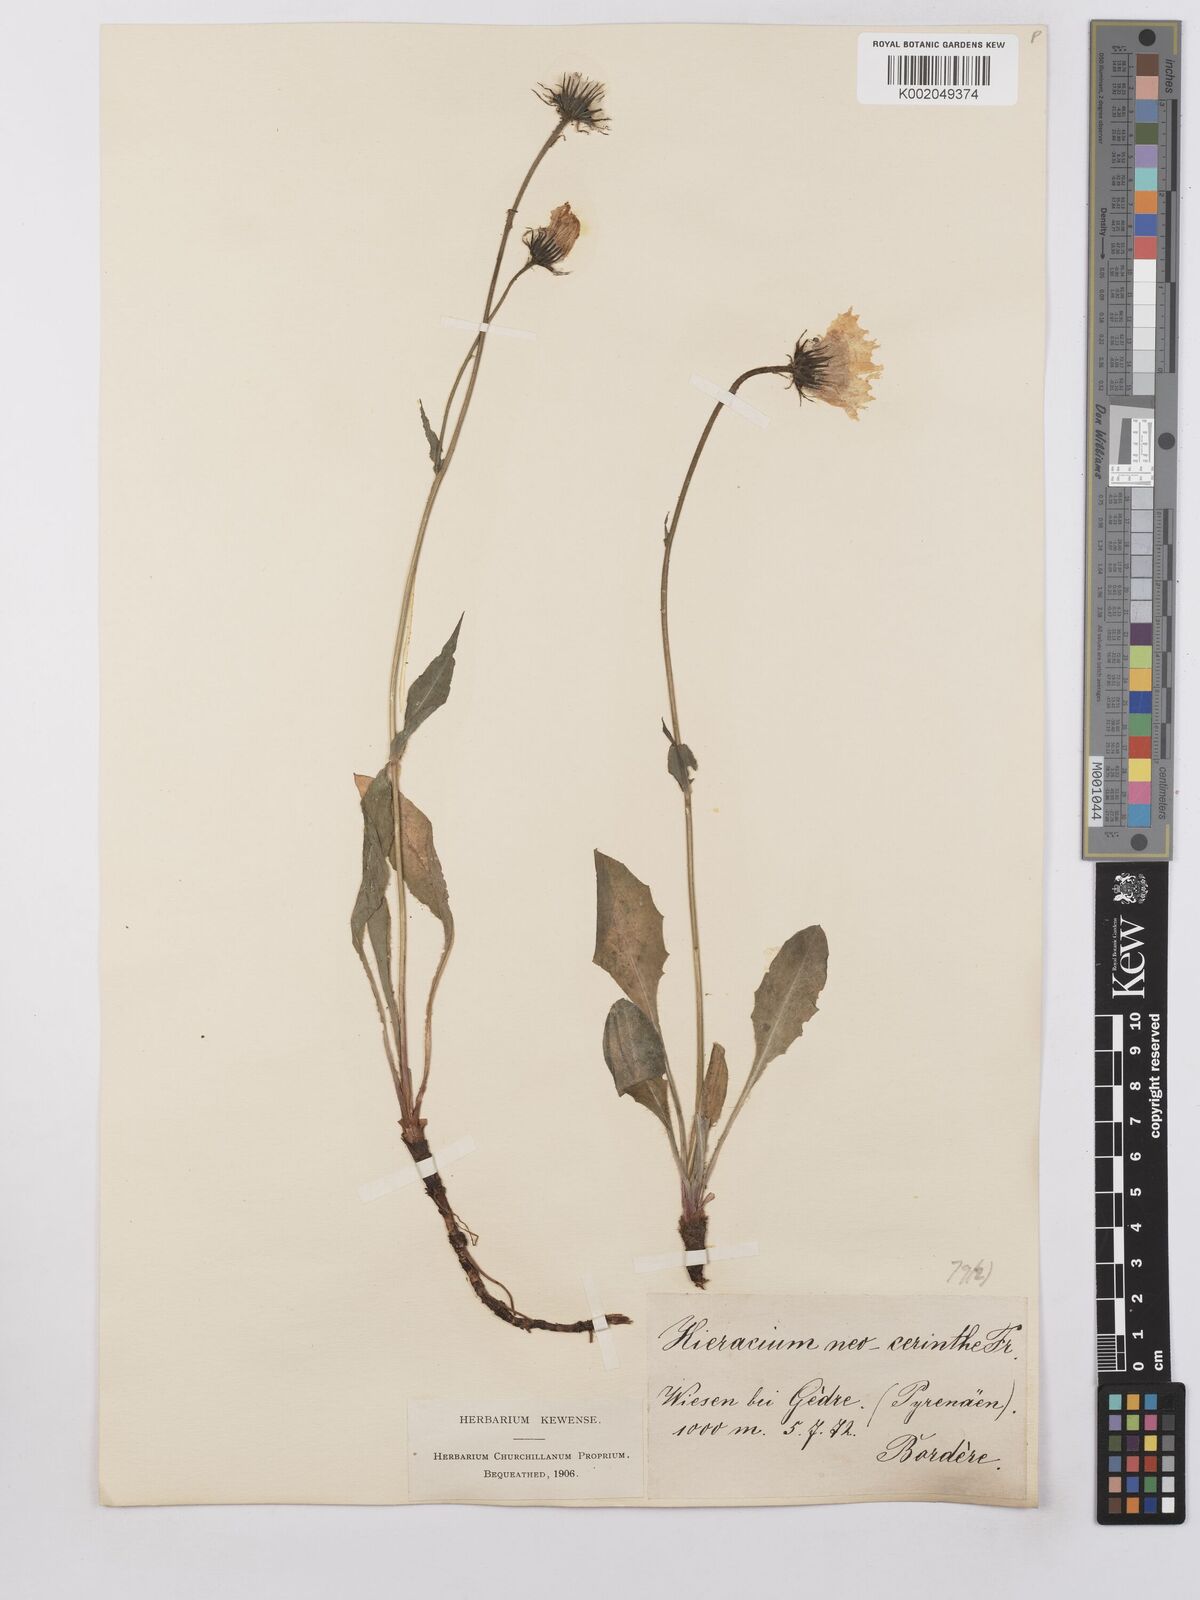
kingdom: Plantae
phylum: Tracheophyta
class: Magnoliopsida
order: Asterales
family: Asteraceae
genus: Hieracium
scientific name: Hieracium cerinthoides
